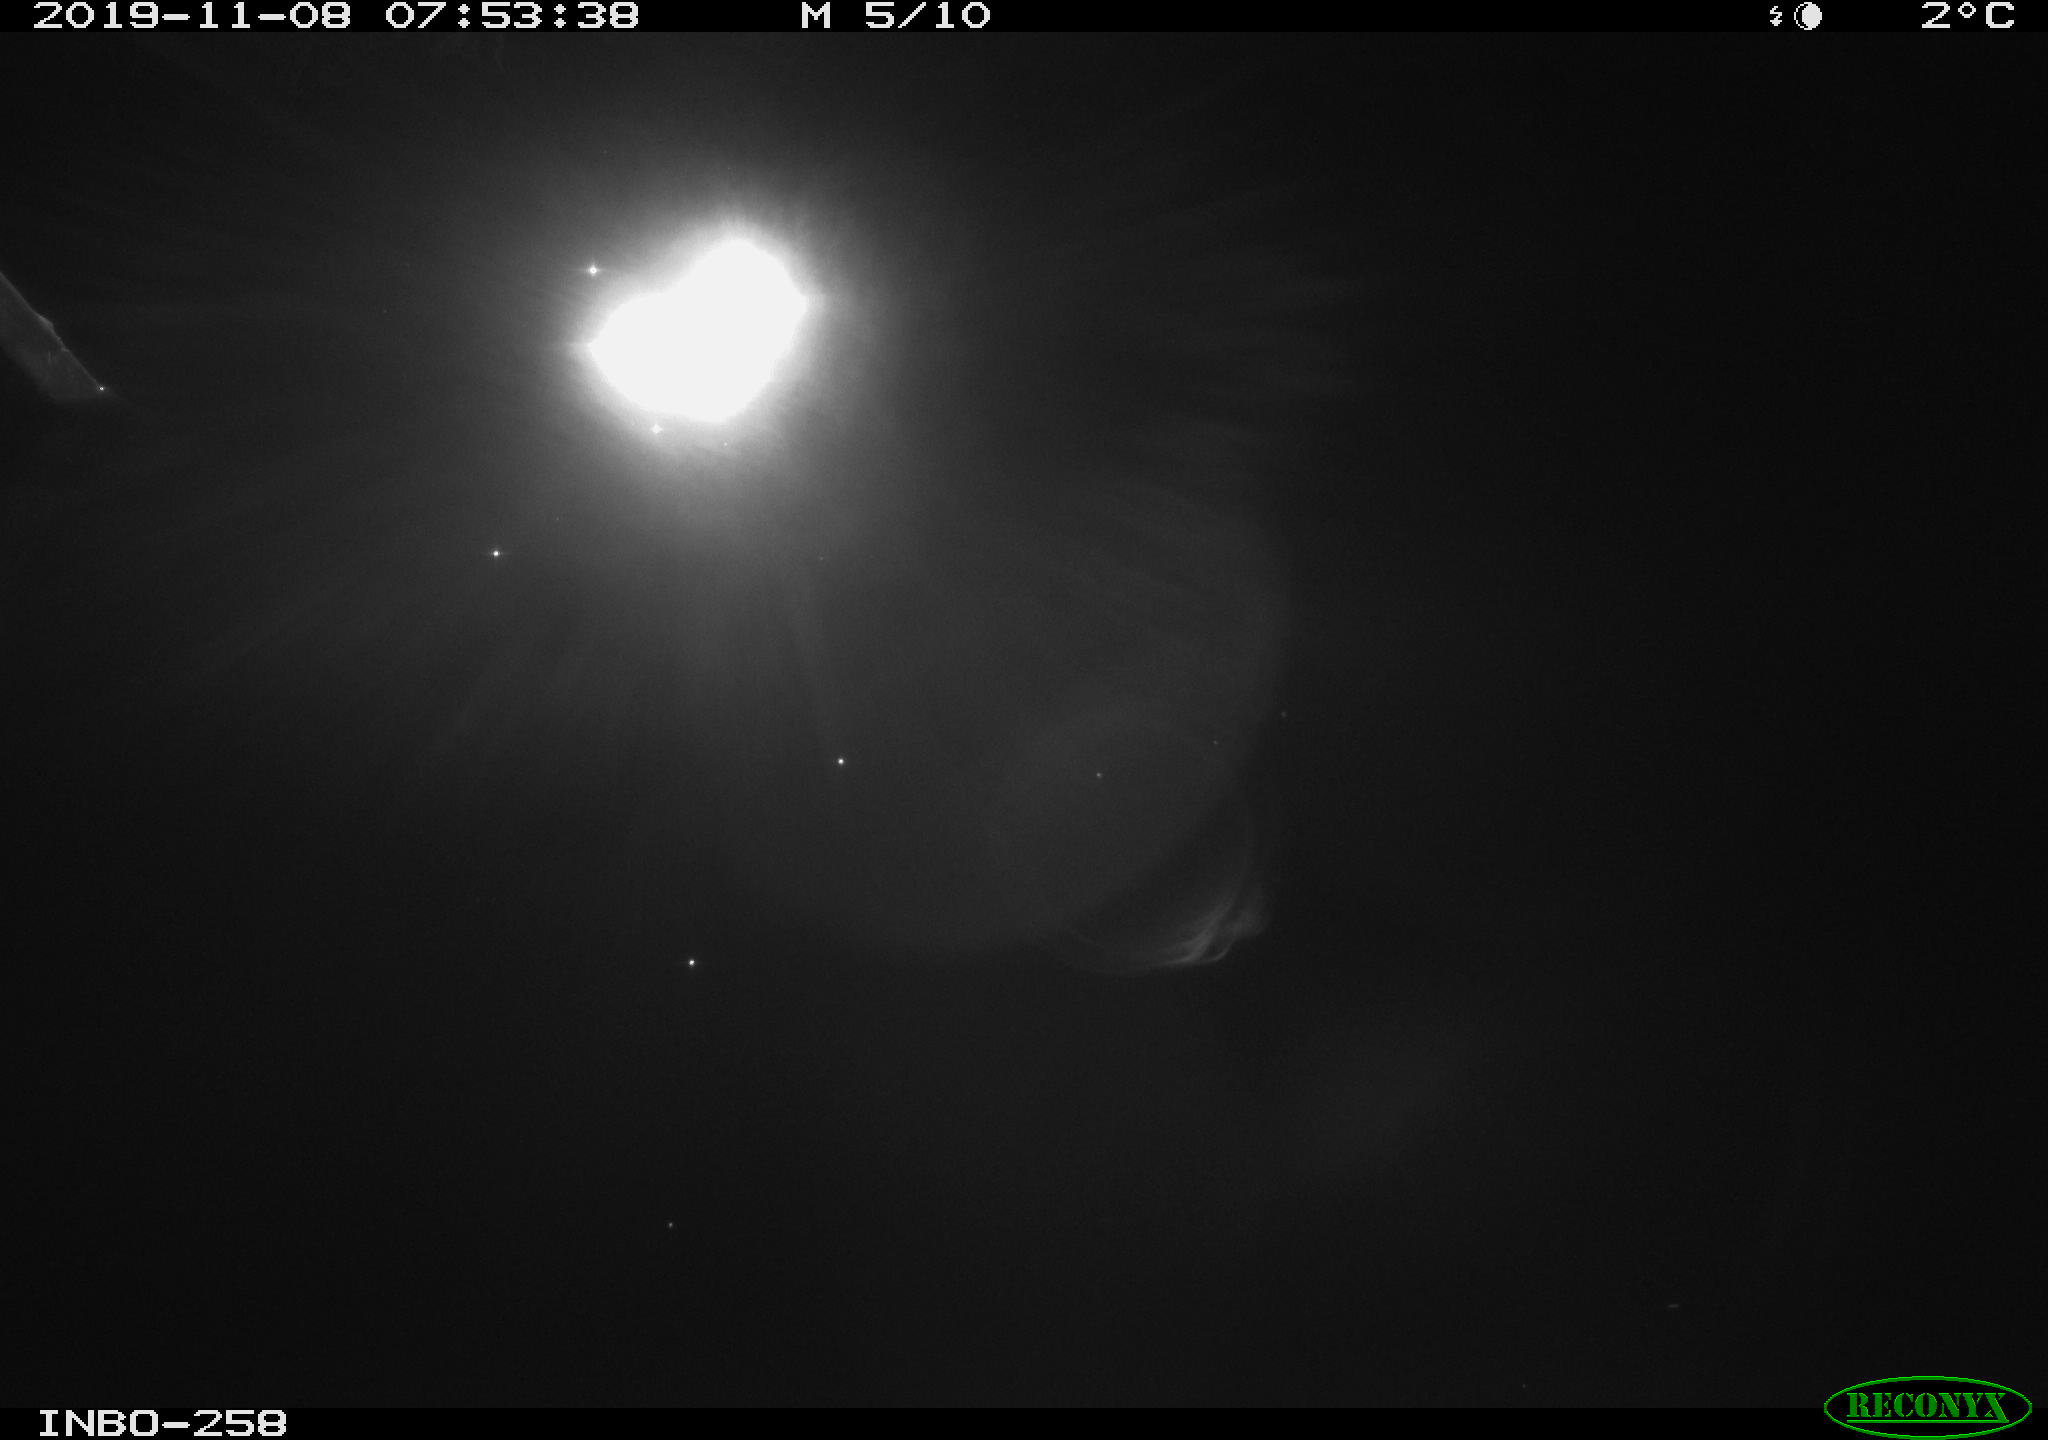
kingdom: Animalia
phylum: Chordata
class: Aves
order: Anseriformes
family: Anatidae
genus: Anas
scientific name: Anas platyrhynchos
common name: Mallard
